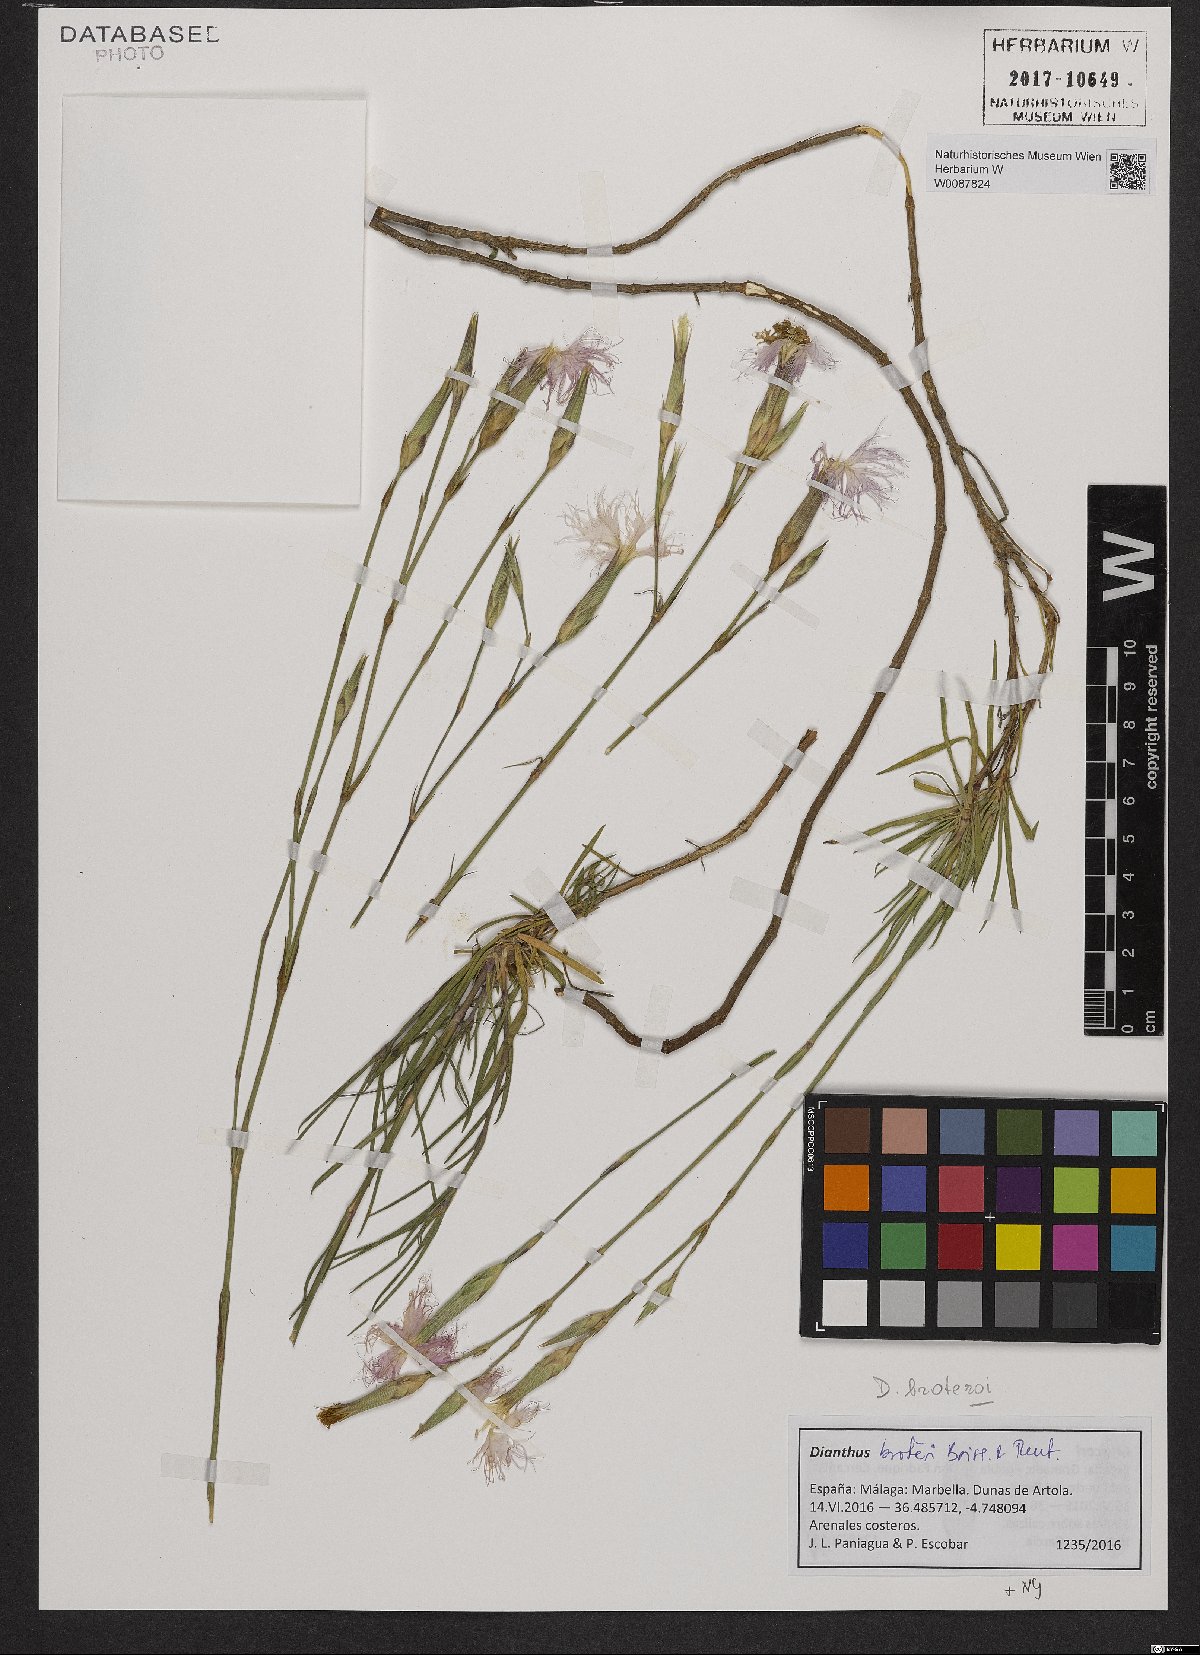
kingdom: Plantae
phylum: Tracheophyta
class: Magnoliopsida
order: Caryophyllales
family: Caryophyllaceae
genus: Dianthus
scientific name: Dianthus broteri
